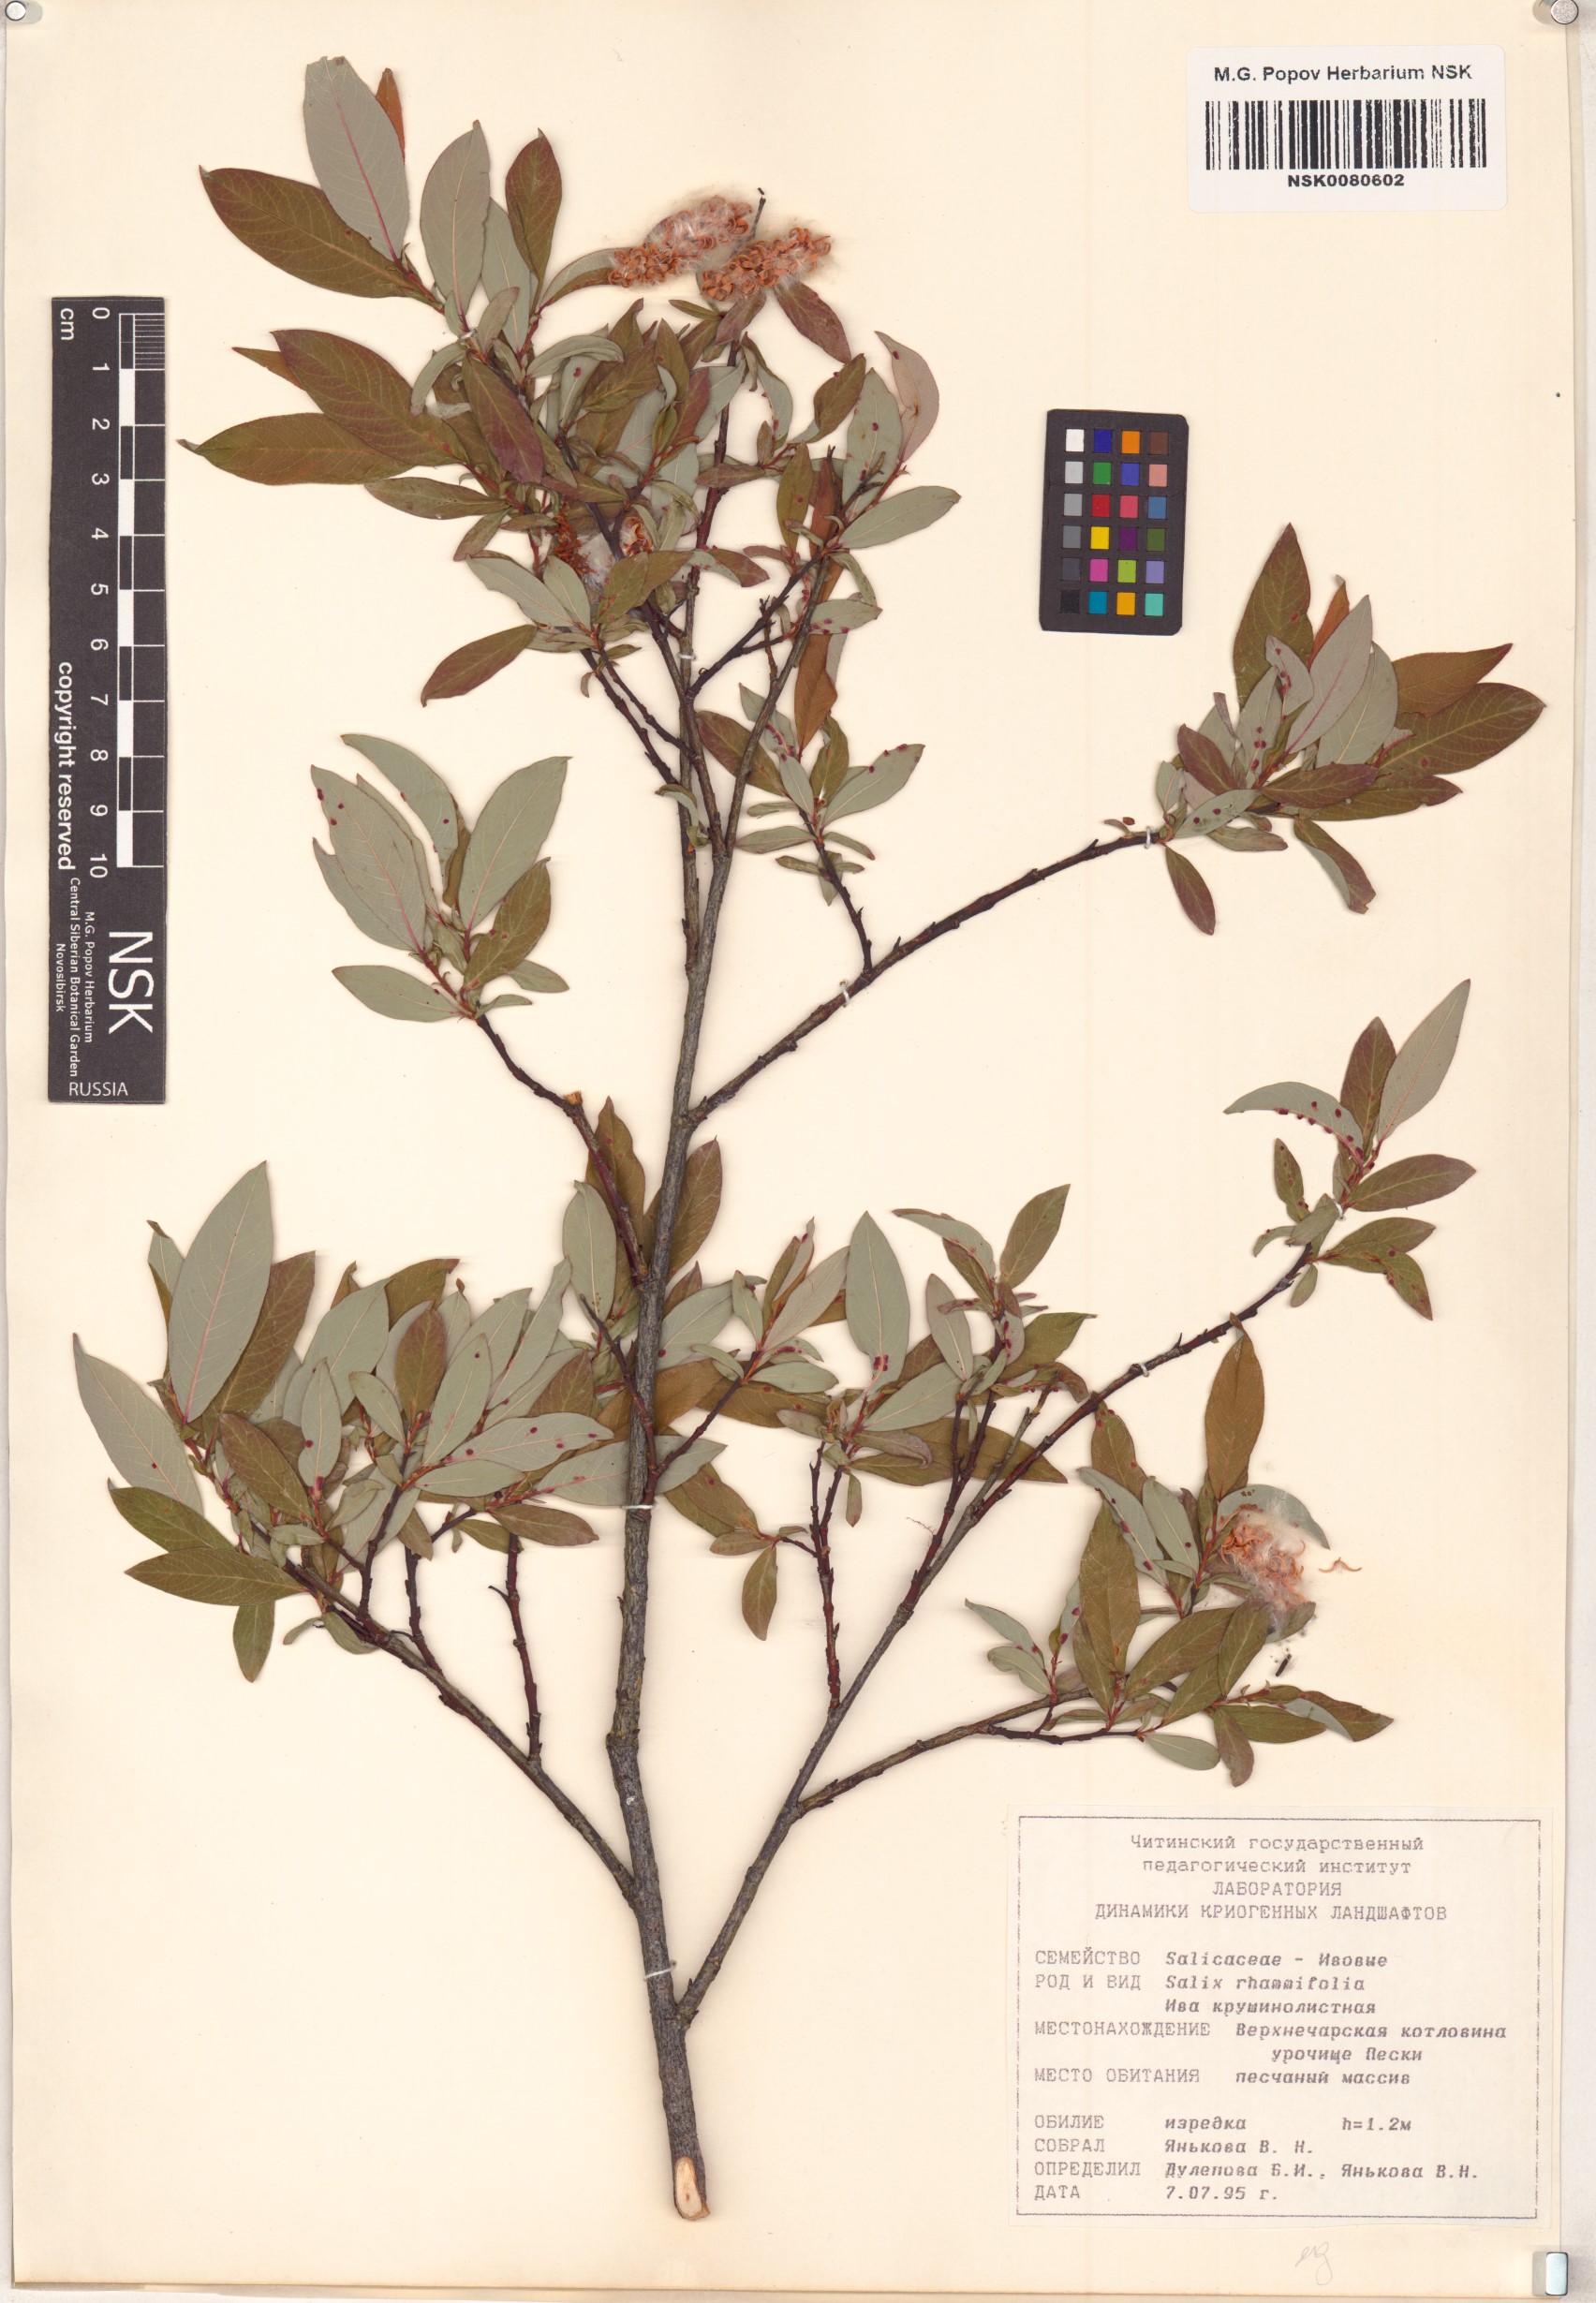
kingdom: Plantae
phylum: Tracheophyta
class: Magnoliopsida
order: Malpighiales
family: Salicaceae
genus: Salix
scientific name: Salix rhamnifolia
